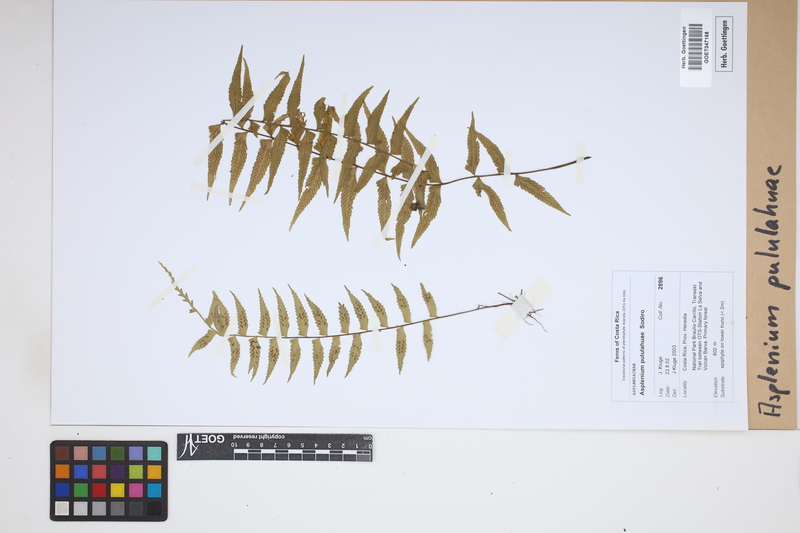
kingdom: Plantae
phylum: Tracheophyta
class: Polypodiopsida
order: Polypodiales
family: Aspleniaceae
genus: Asplenium
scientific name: Asplenium pululahuae
